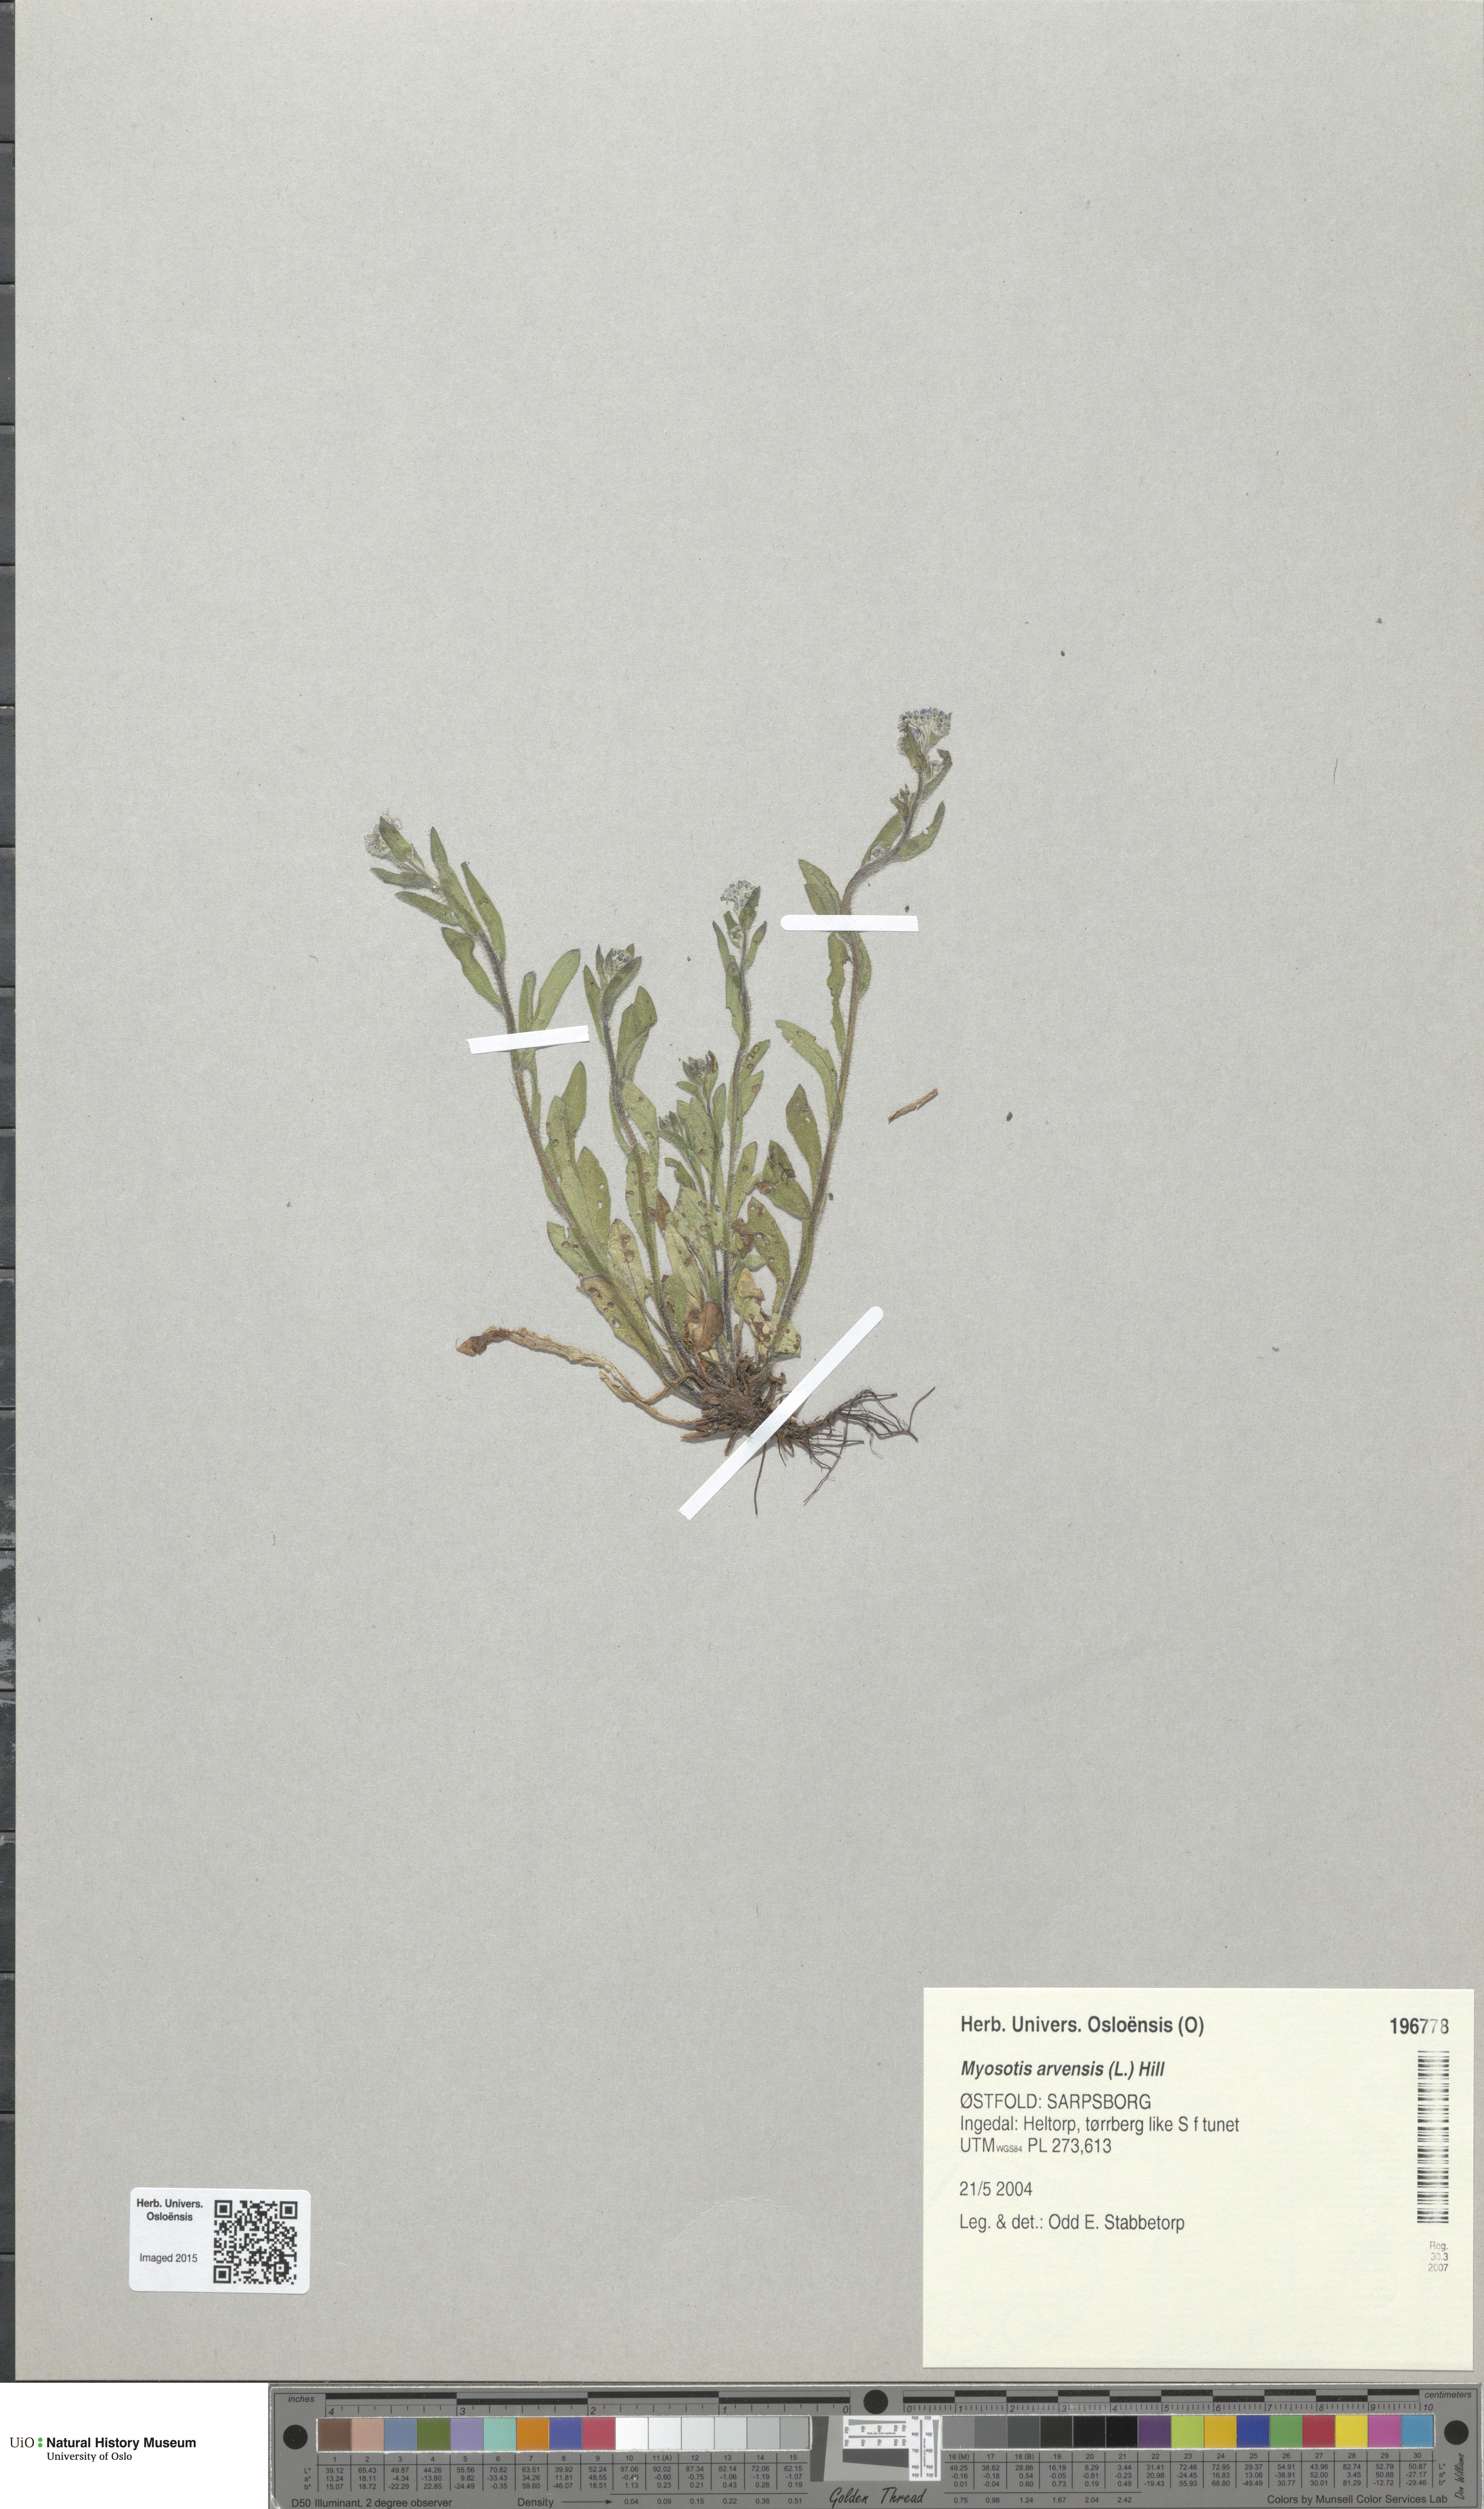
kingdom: Plantae
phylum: Tracheophyta
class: Magnoliopsida
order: Boraginales
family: Boraginaceae
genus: Myosotis
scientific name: Myosotis arvensis
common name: Field forget-me-not
